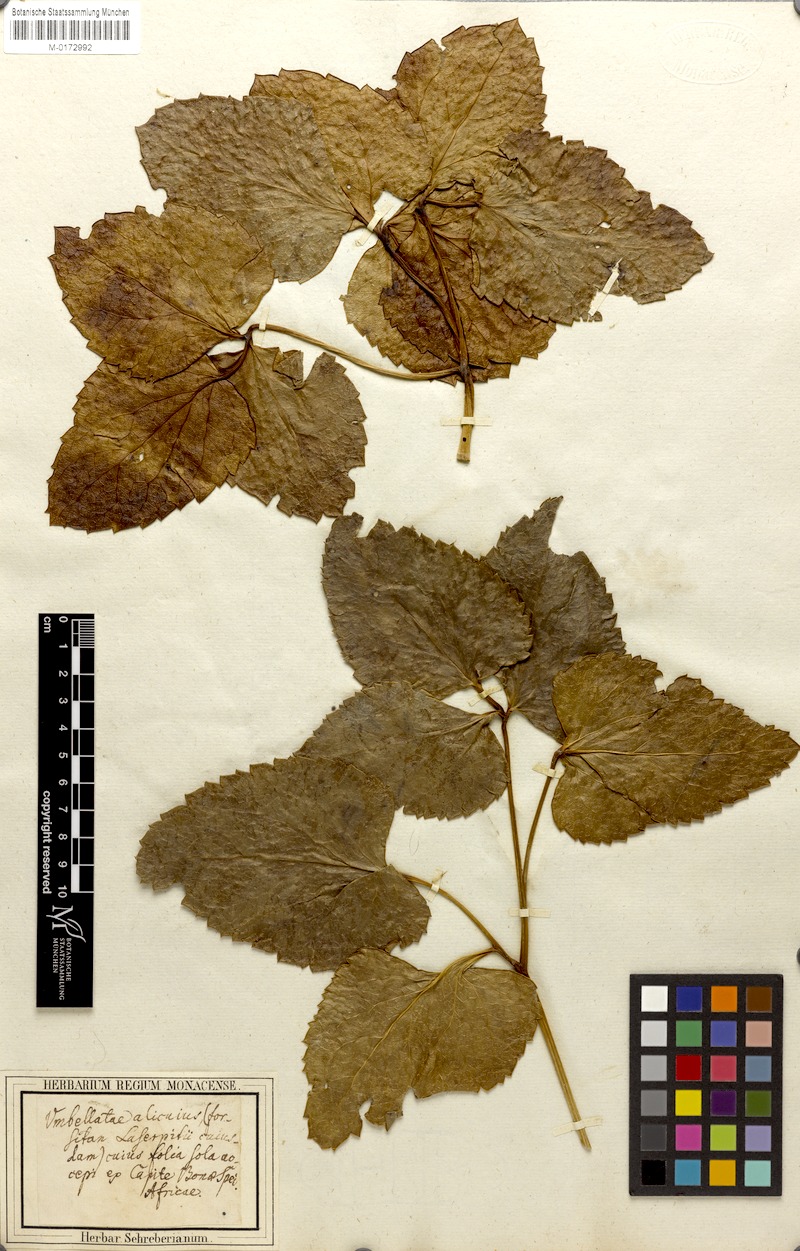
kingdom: Plantae
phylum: Tracheophyta
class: Magnoliopsida
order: Apiales
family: Apiaceae
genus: Laserpitium
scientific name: Laserpitium
